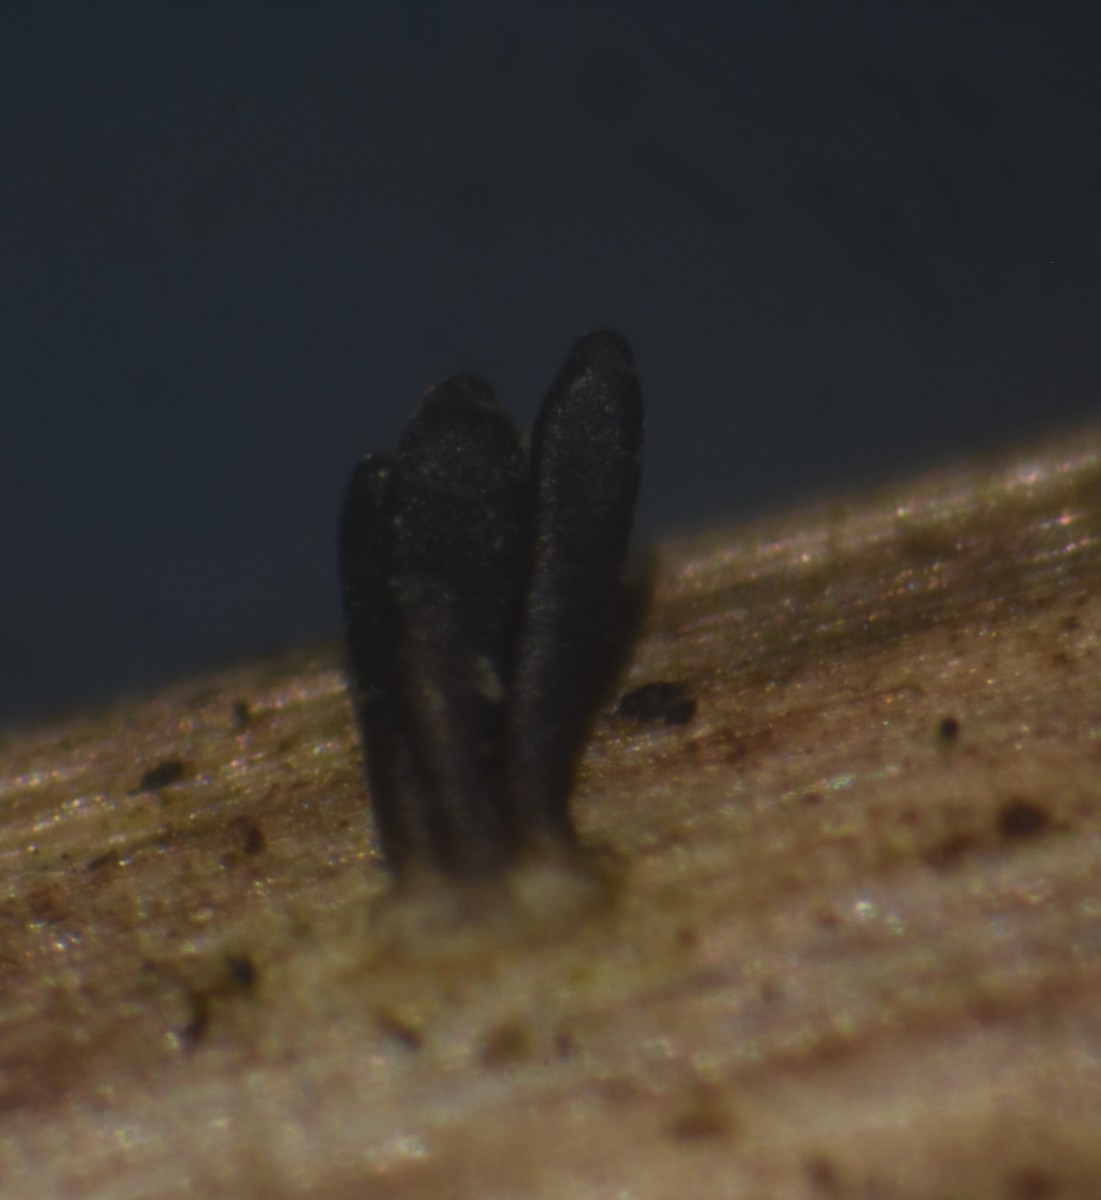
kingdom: Fungi
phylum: Ascomycota
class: Dothideomycetes
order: Acrospermales
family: Acrospermaceae
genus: Acrospermum
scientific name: Acrospermum compressum
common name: nælde-stængeltunge
